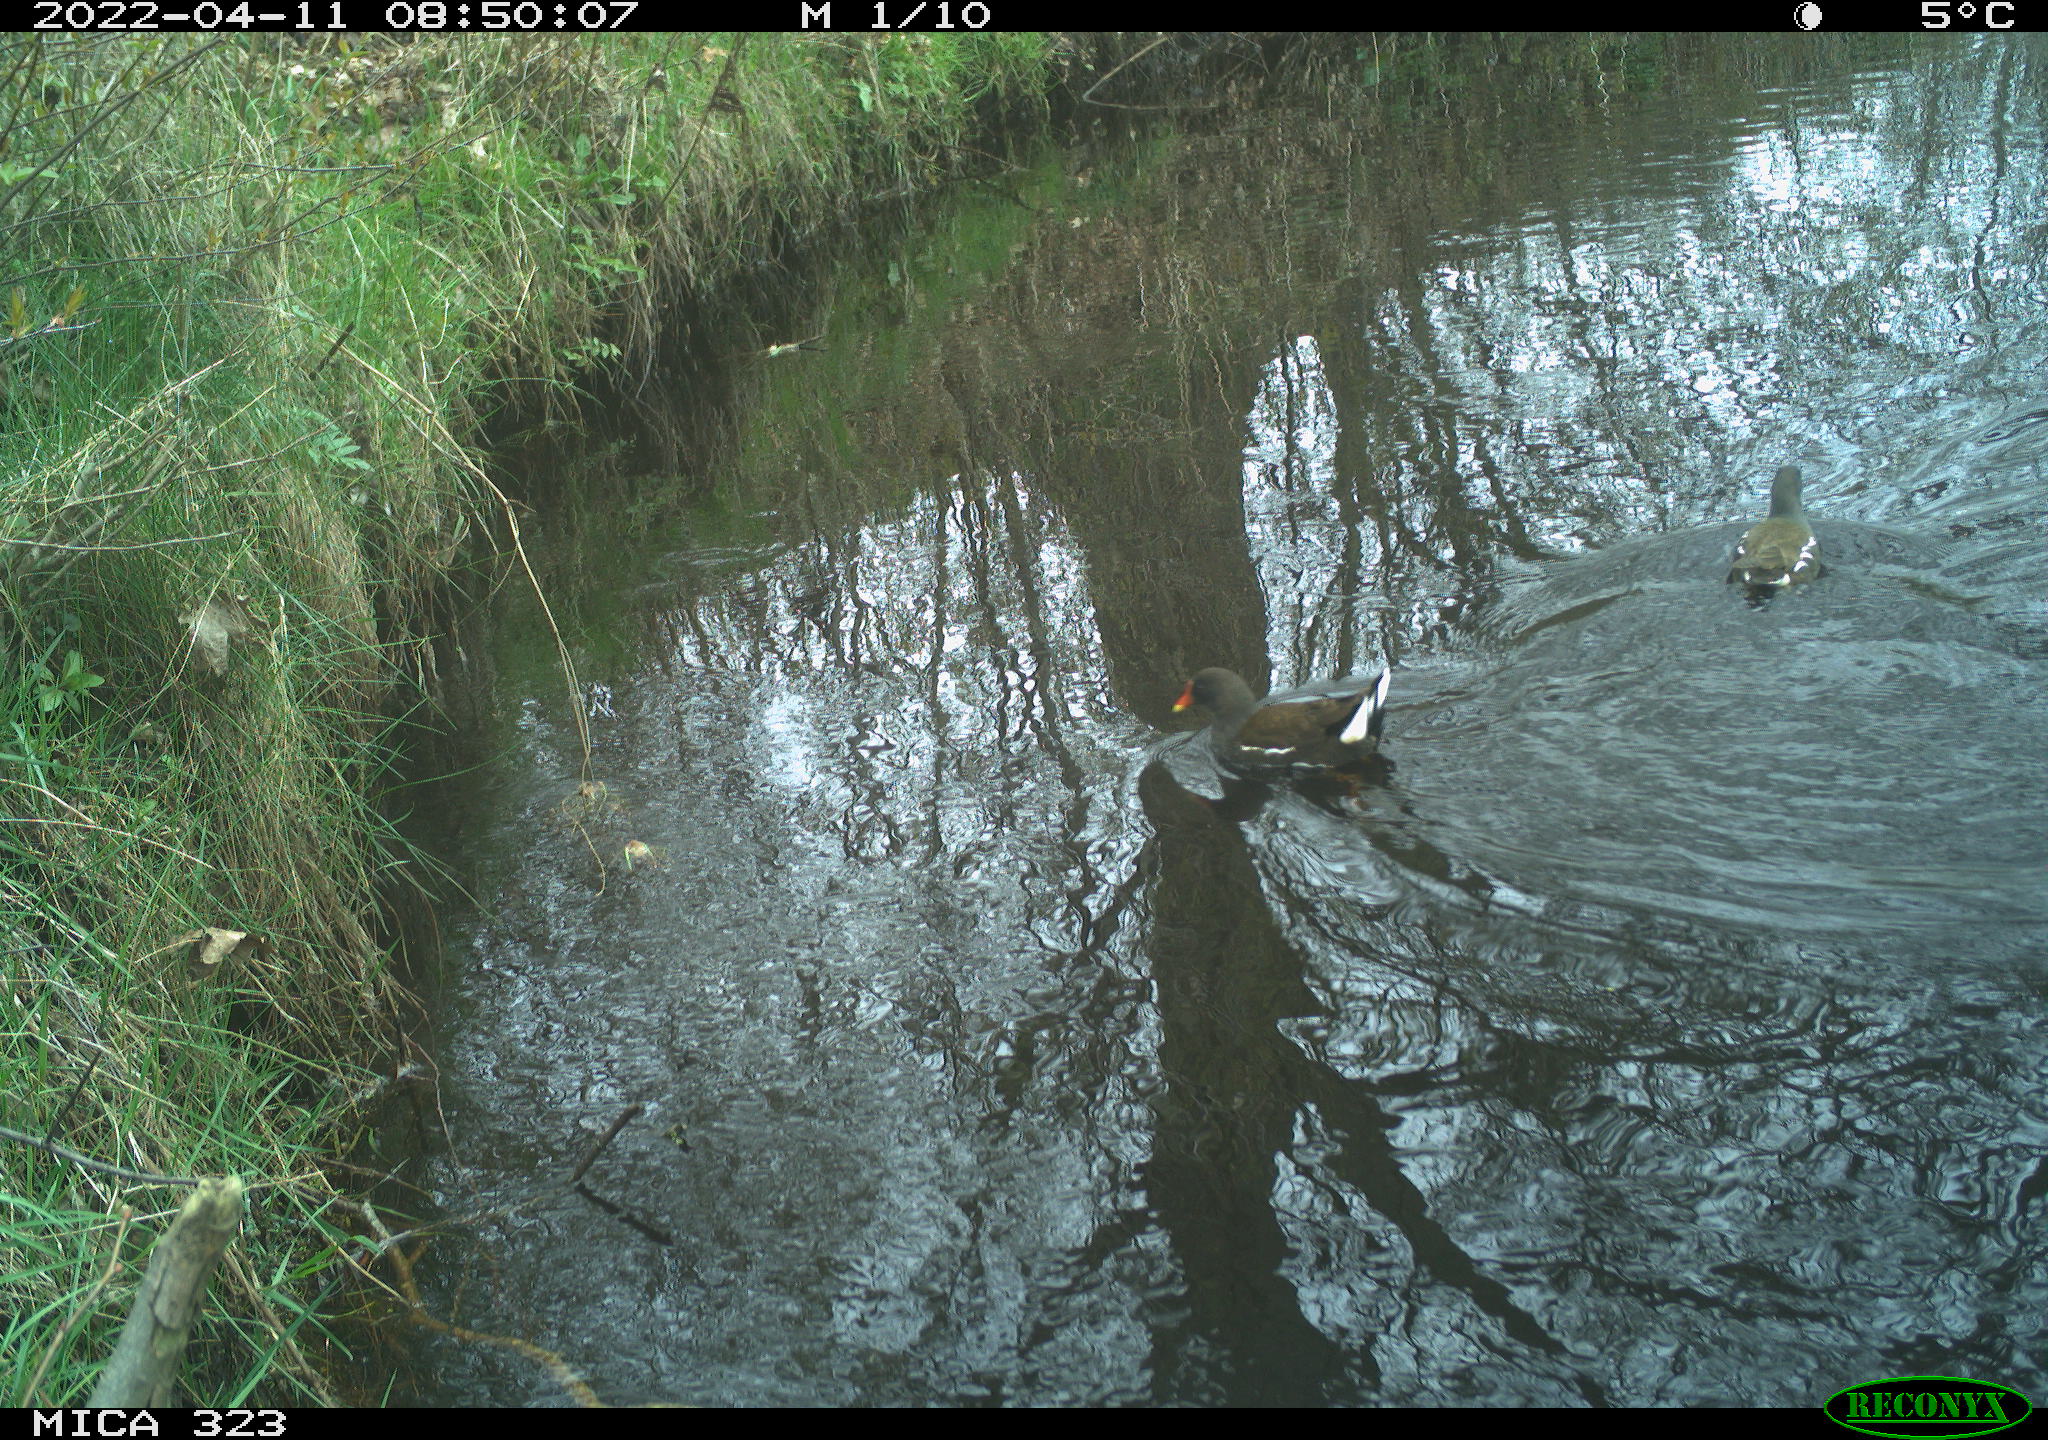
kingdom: Animalia
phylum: Chordata
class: Aves
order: Gruiformes
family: Rallidae
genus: Gallinula
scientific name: Gallinula chloropus
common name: Common moorhen
